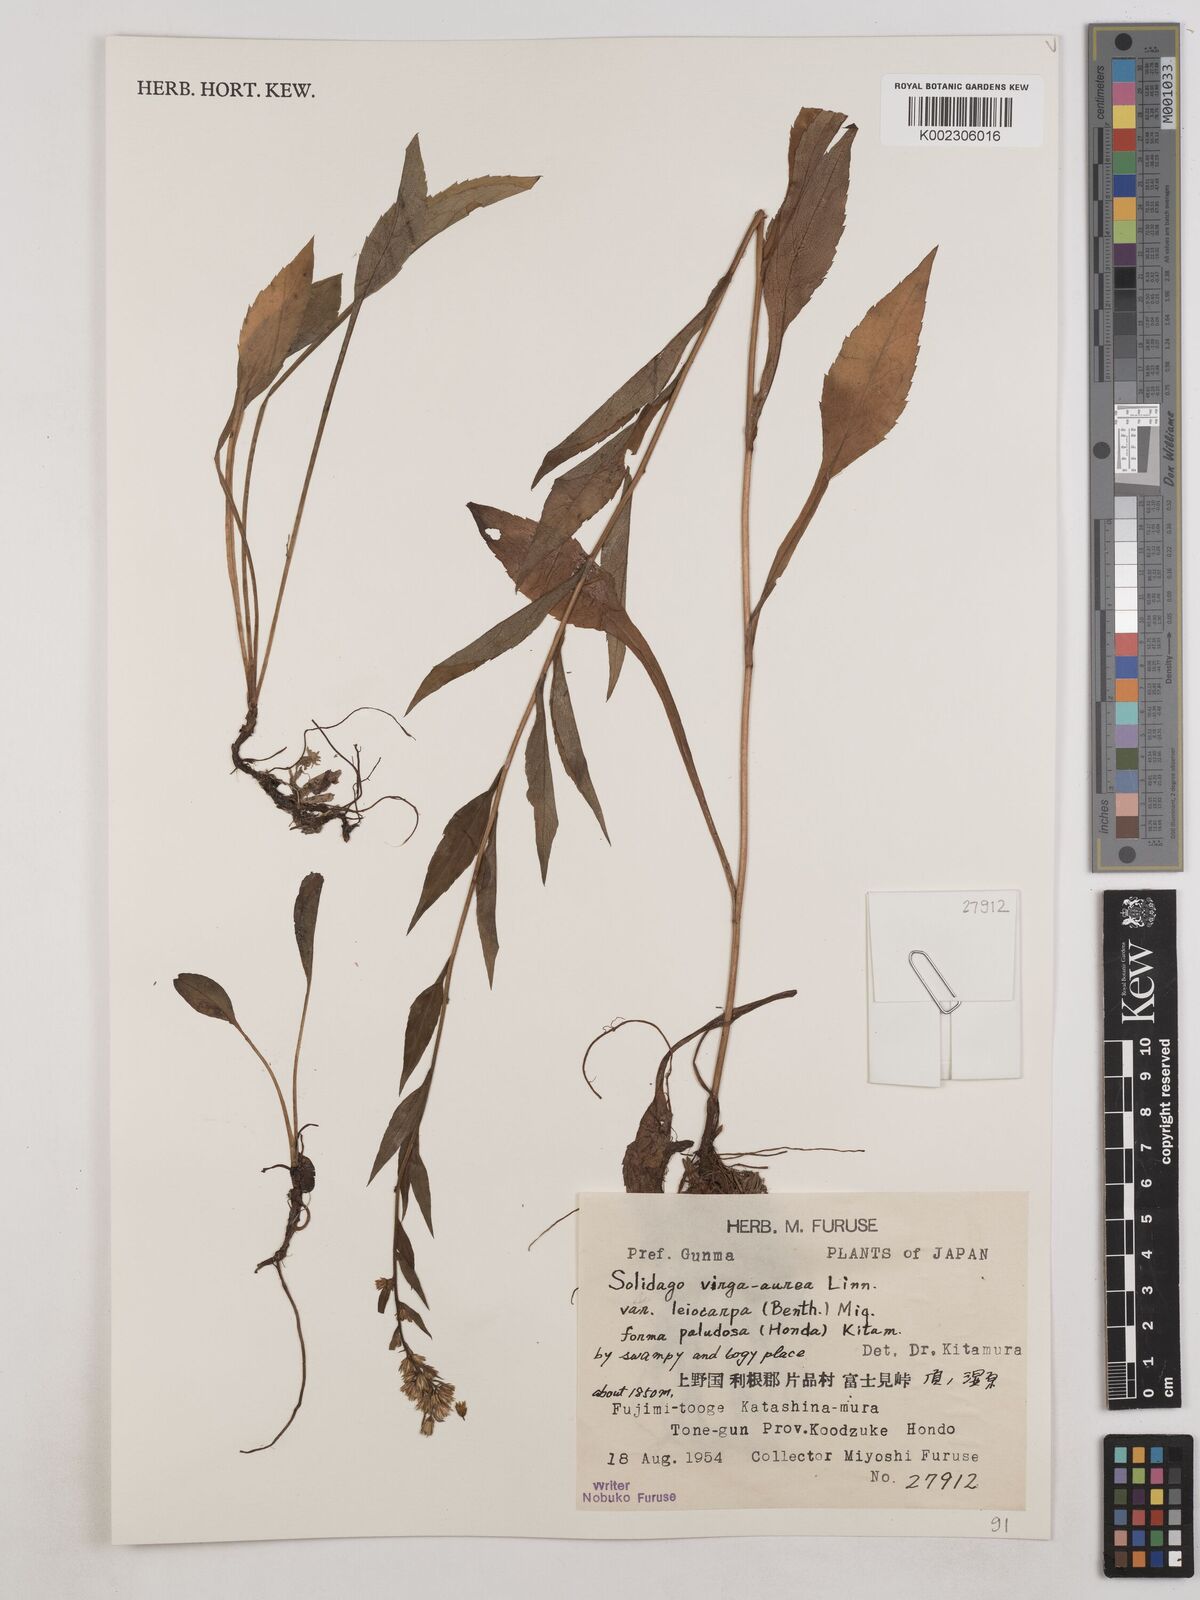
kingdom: Plantae
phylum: Tracheophyta
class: Magnoliopsida
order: Asterales
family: Asteraceae
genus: Solidago
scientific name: Solidago decurrens
